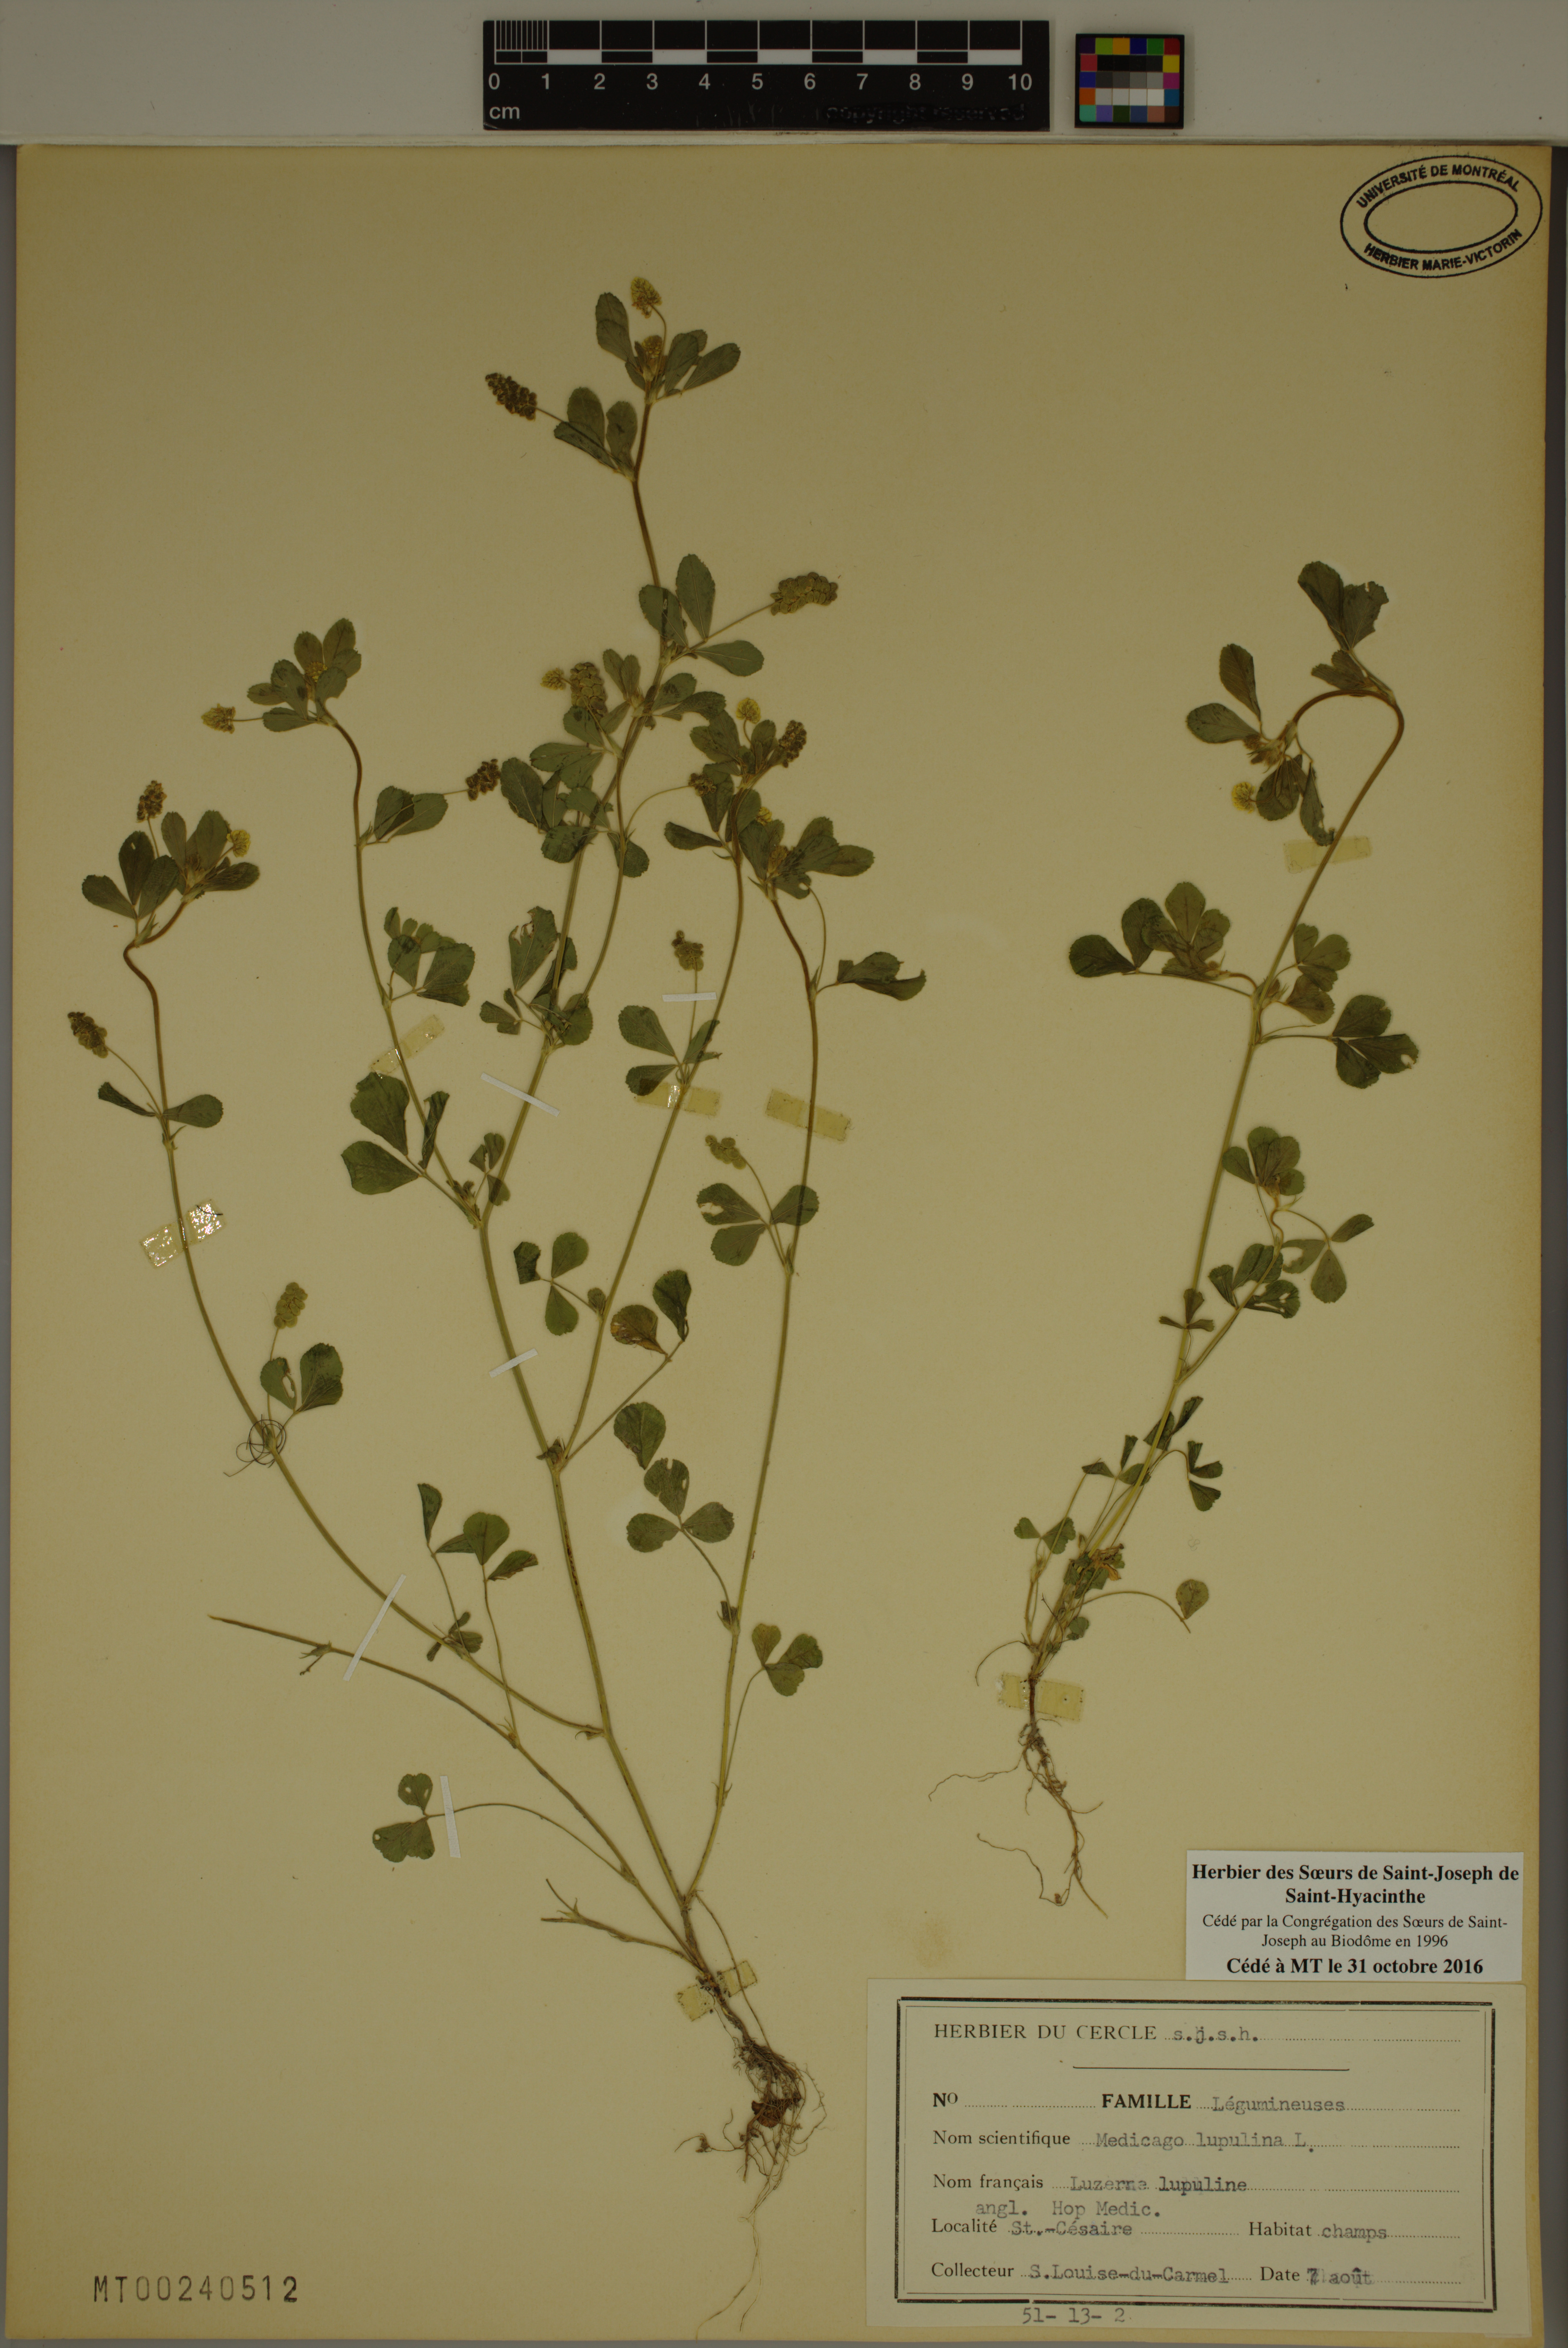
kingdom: Plantae
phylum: Tracheophyta
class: Magnoliopsida
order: Fabales
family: Fabaceae
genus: Medicago
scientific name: Medicago lupulina
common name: Black medick
